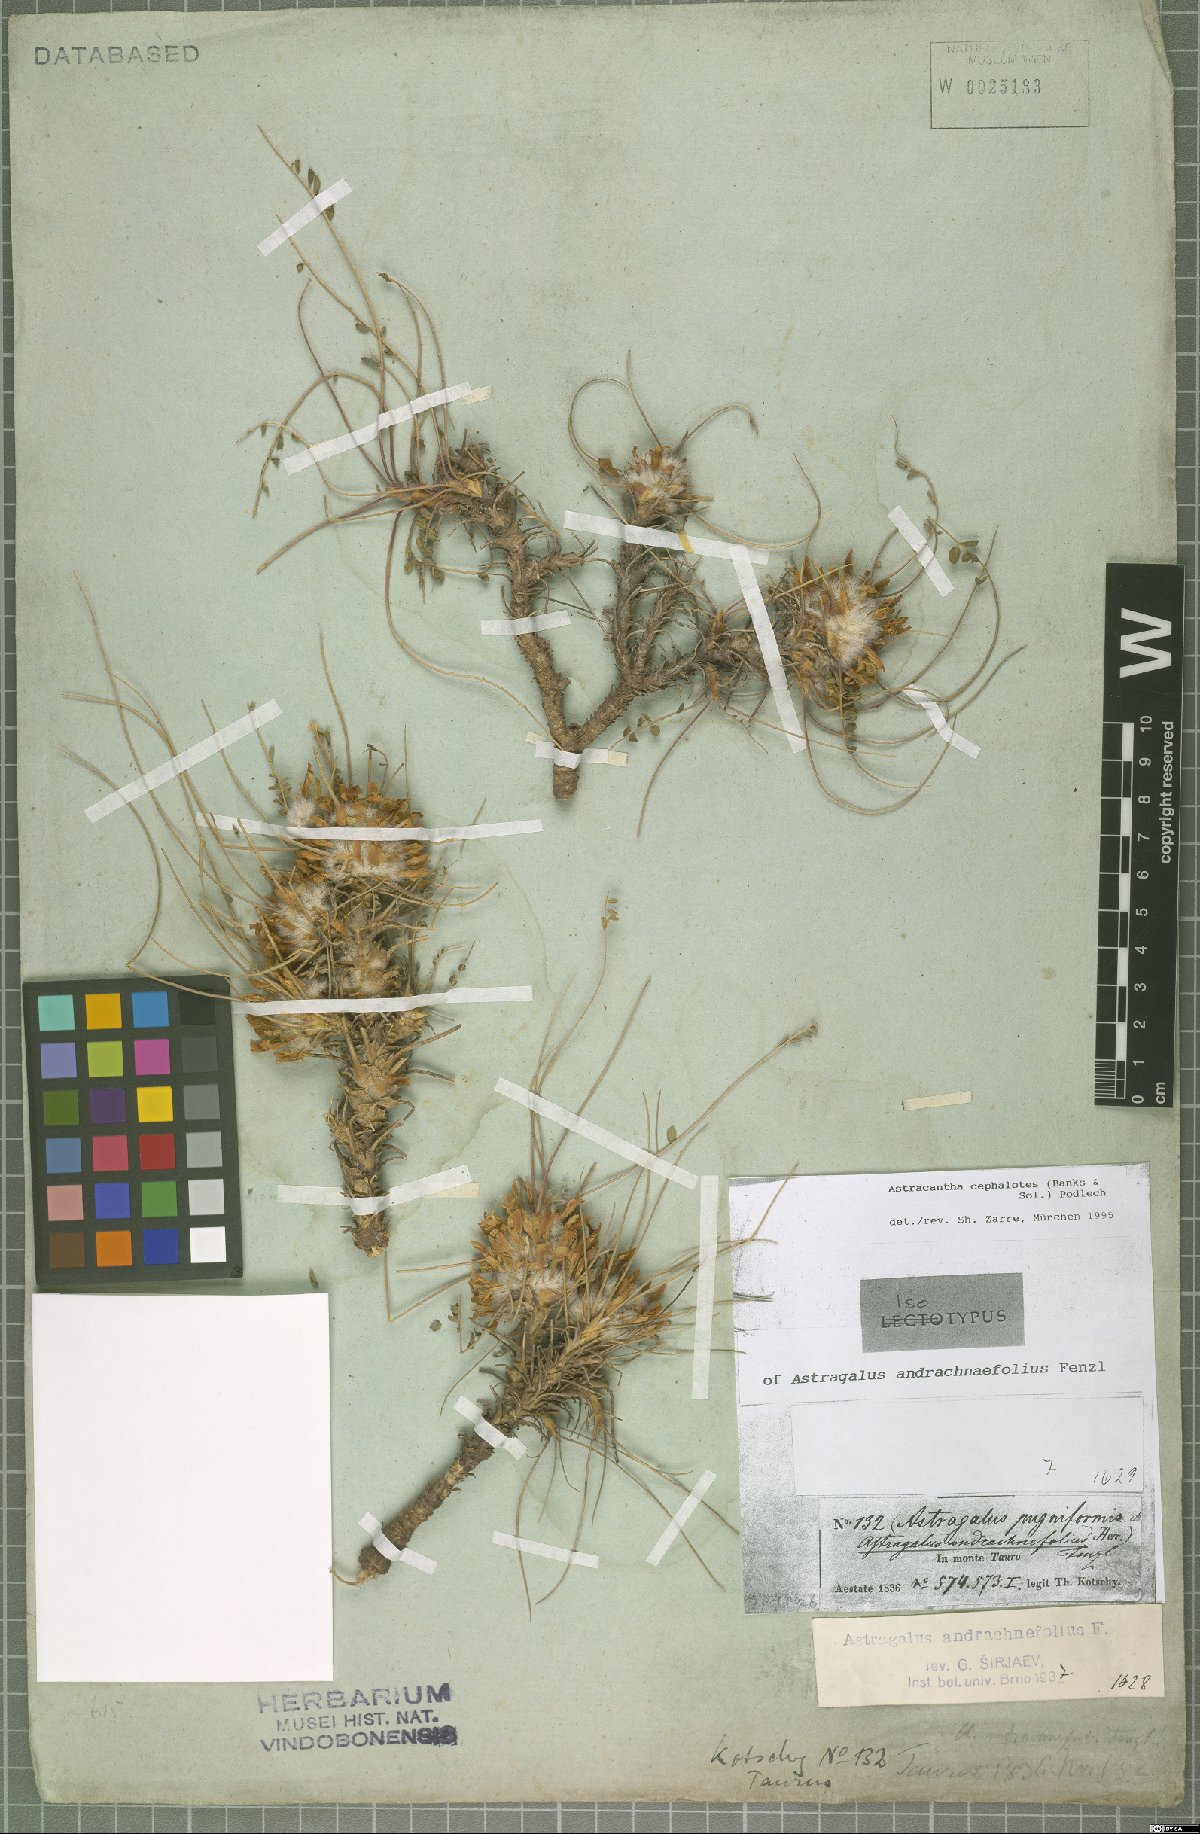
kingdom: Plantae
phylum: Tracheophyta
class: Magnoliopsida
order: Fabales
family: Fabaceae
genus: Astragalus
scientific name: Astragalus cephalotes
